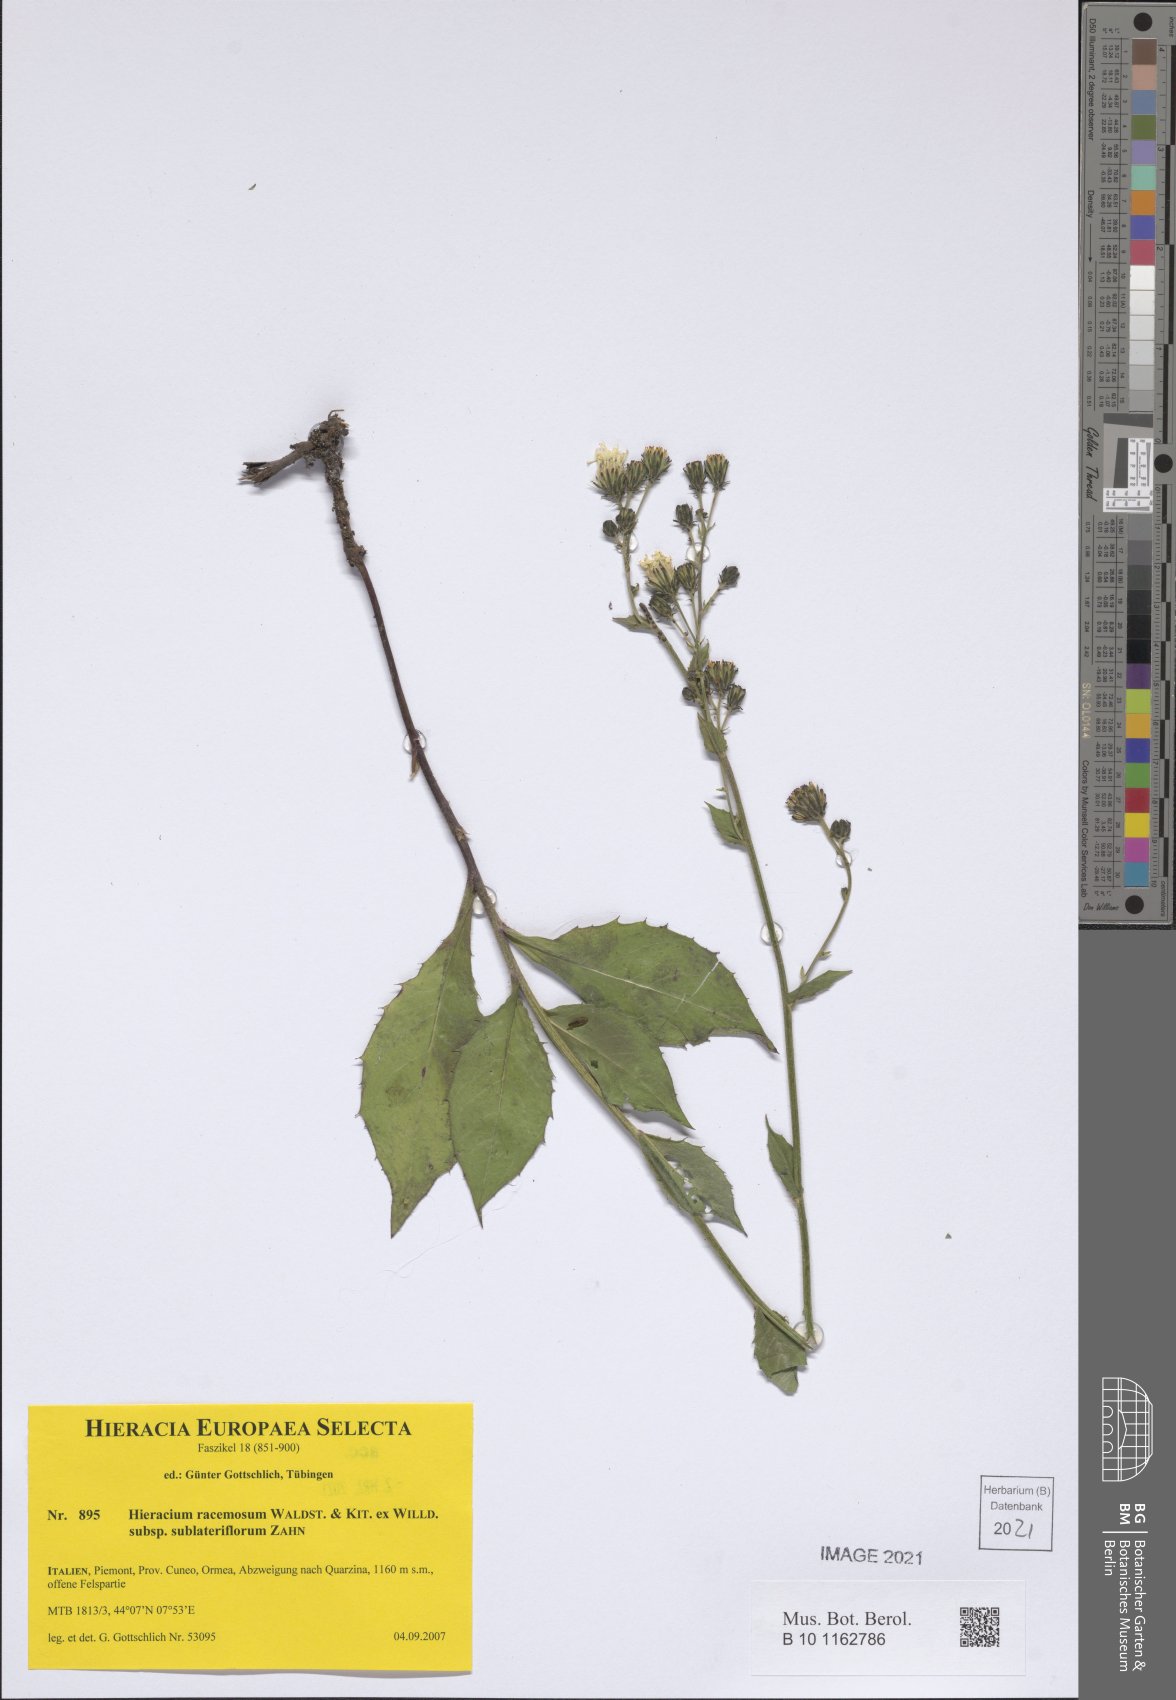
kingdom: Plantae
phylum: Tracheophyta
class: Magnoliopsida
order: Asterales
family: Asteraceae
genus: Hieracium
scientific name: Hieracium racemosum
